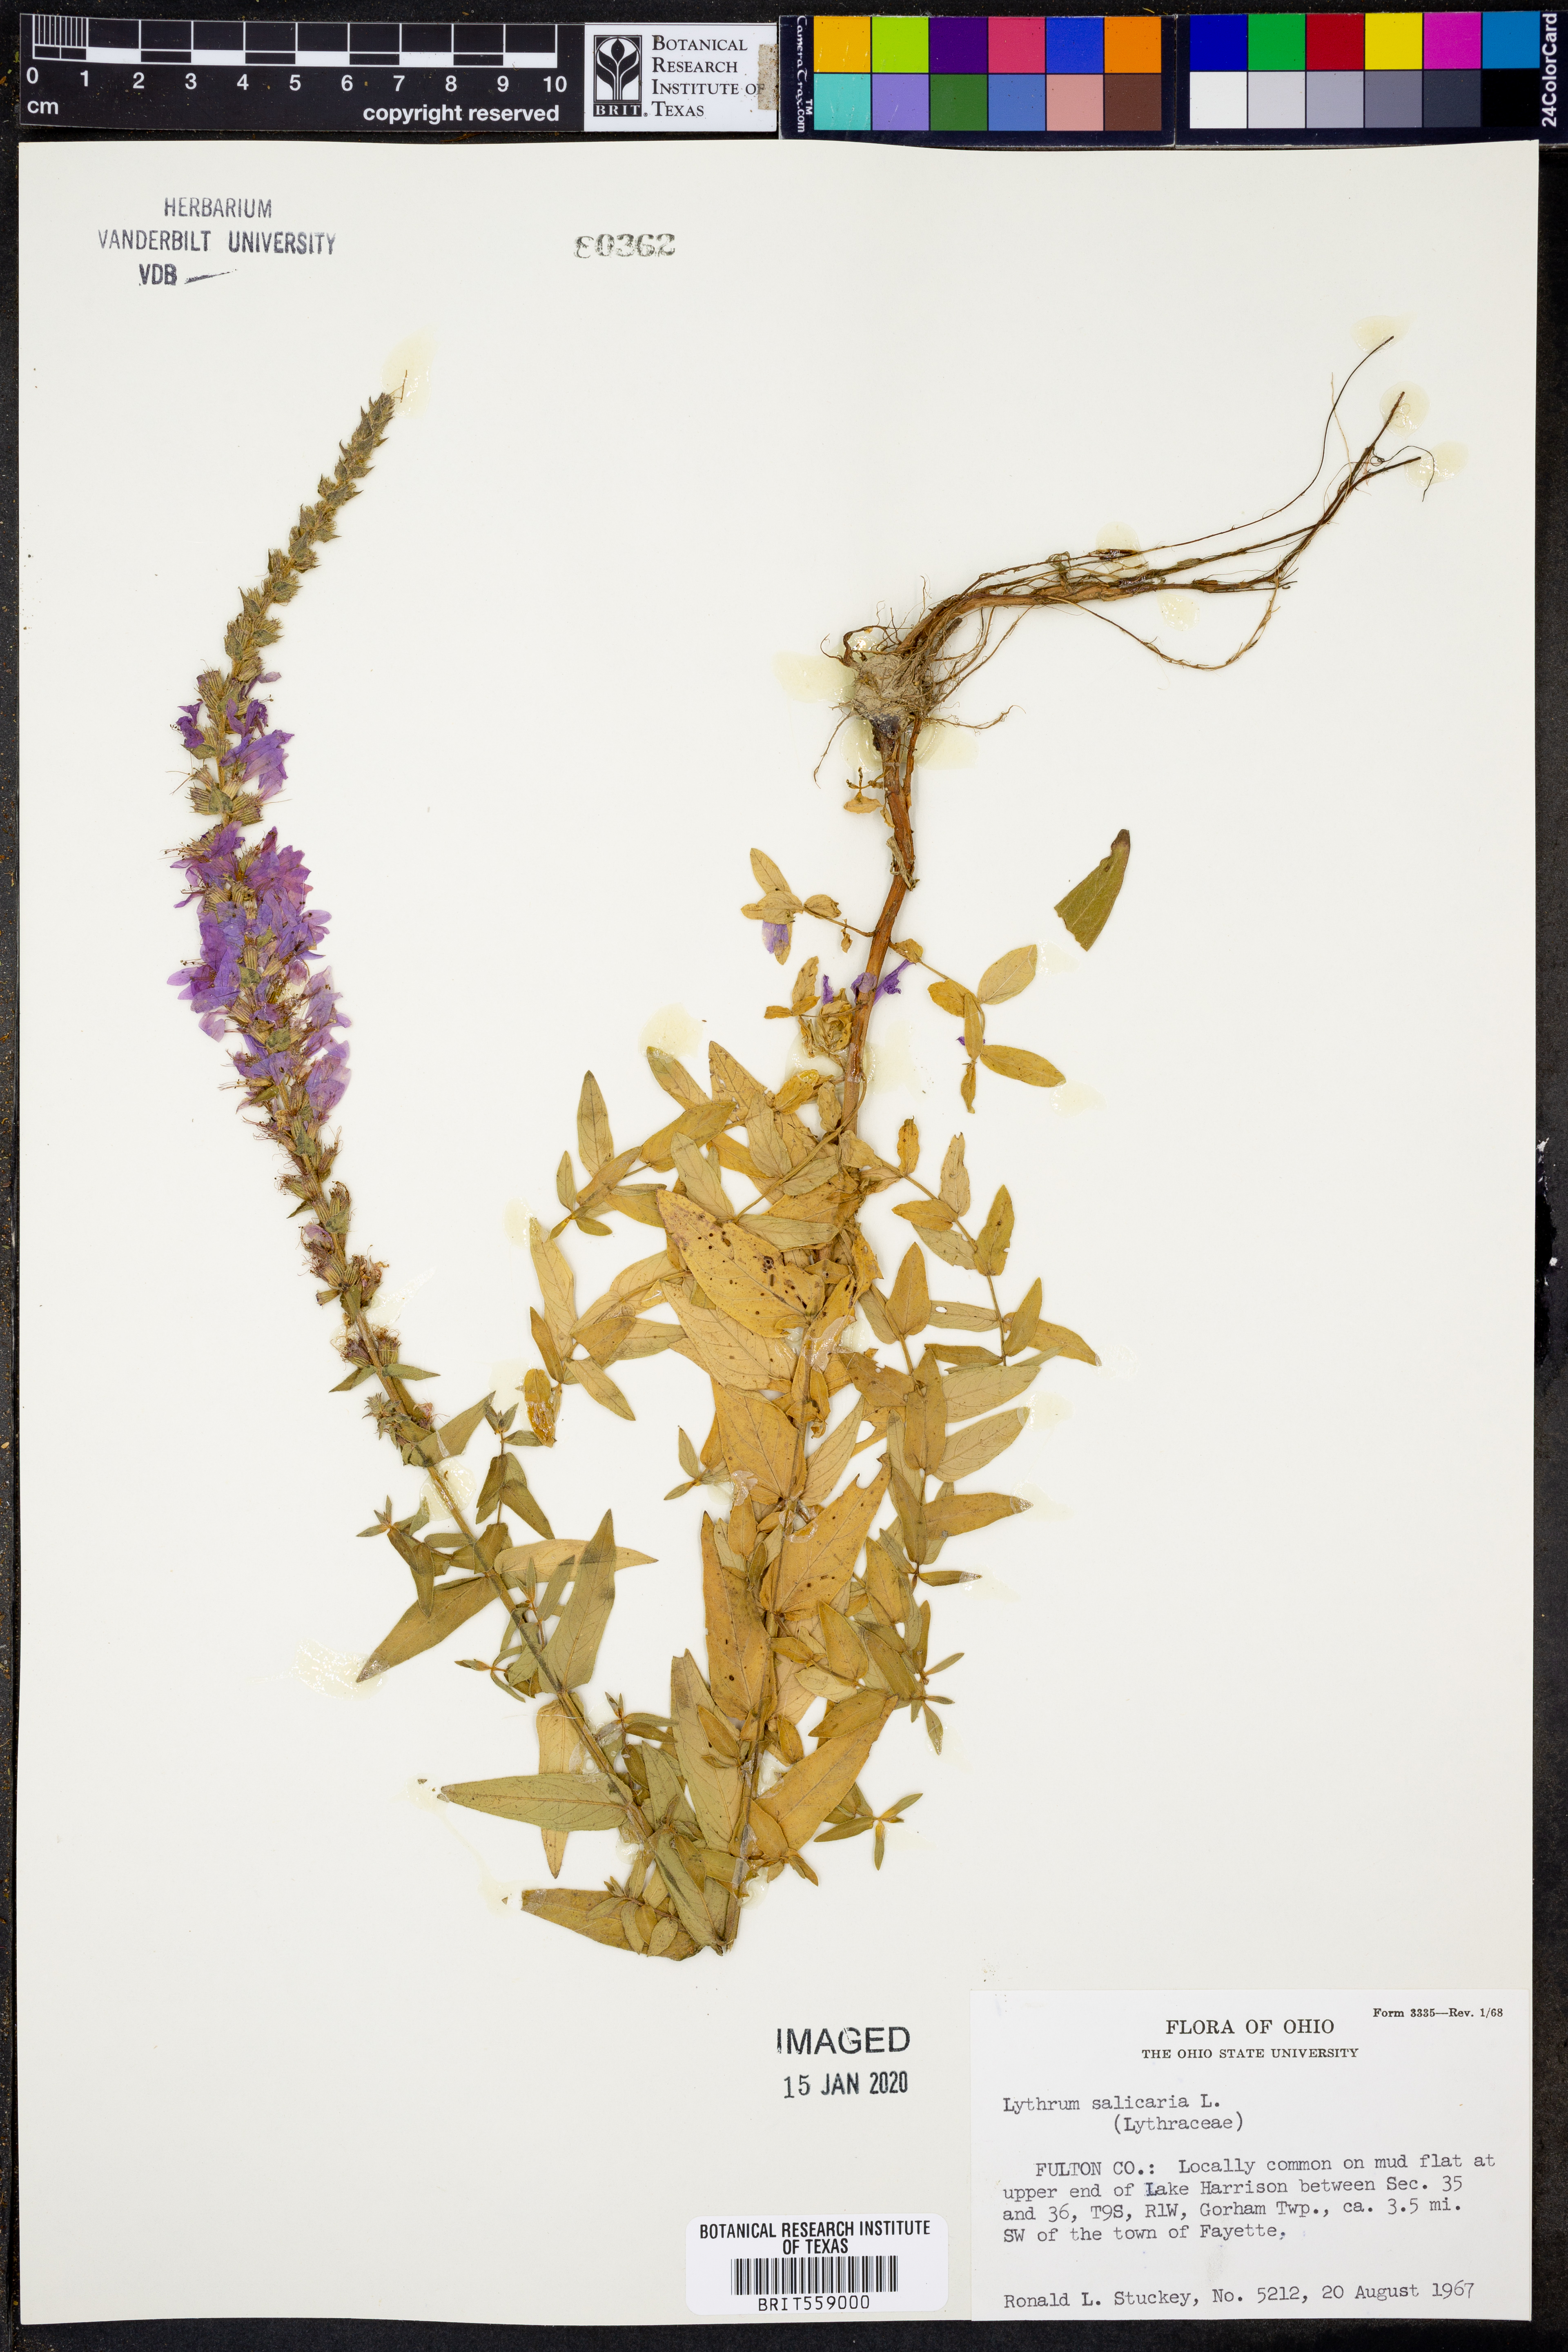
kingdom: Plantae
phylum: Tracheophyta
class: Magnoliopsida
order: Myrtales
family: Lythraceae
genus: Lythrum
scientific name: Lythrum salicaria
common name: Purple loosestrife
